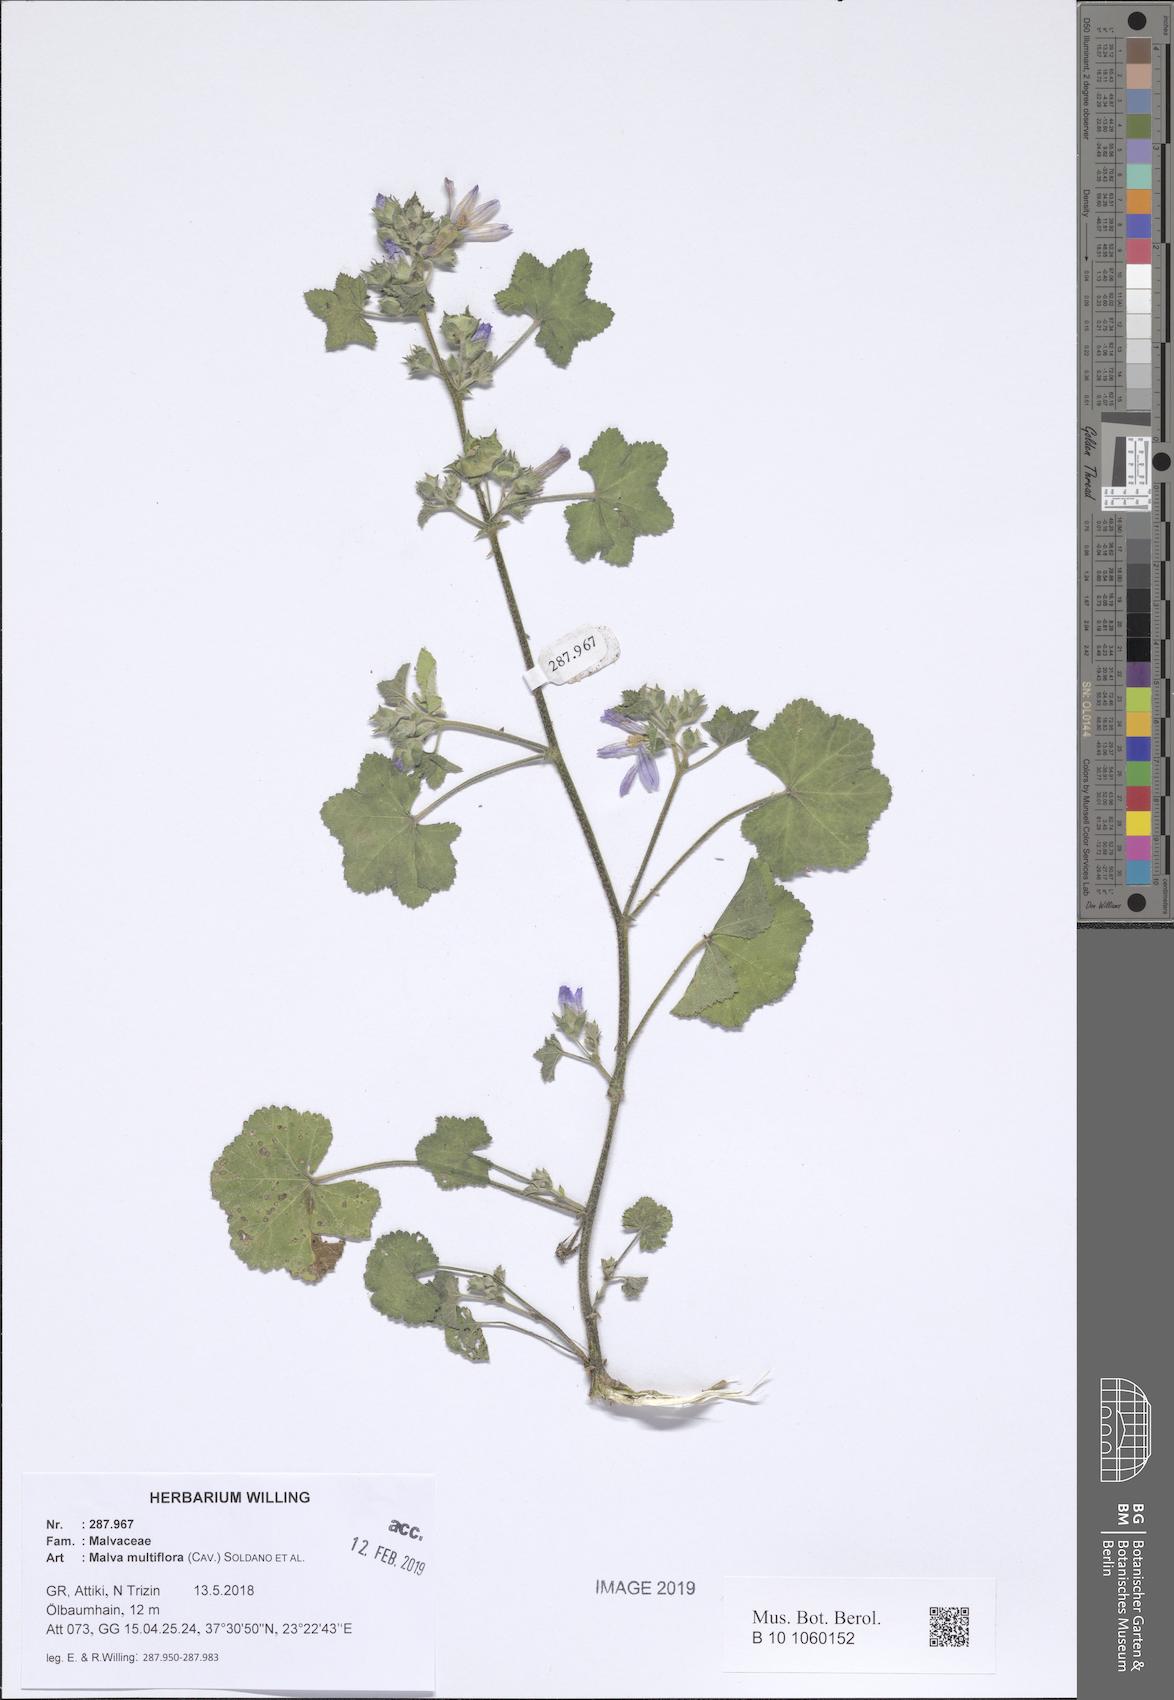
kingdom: Plantae
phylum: Tracheophyta
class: Magnoliopsida
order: Malvales
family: Malvaceae
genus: Malva
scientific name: Malva multiflora
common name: Cheeseweed
